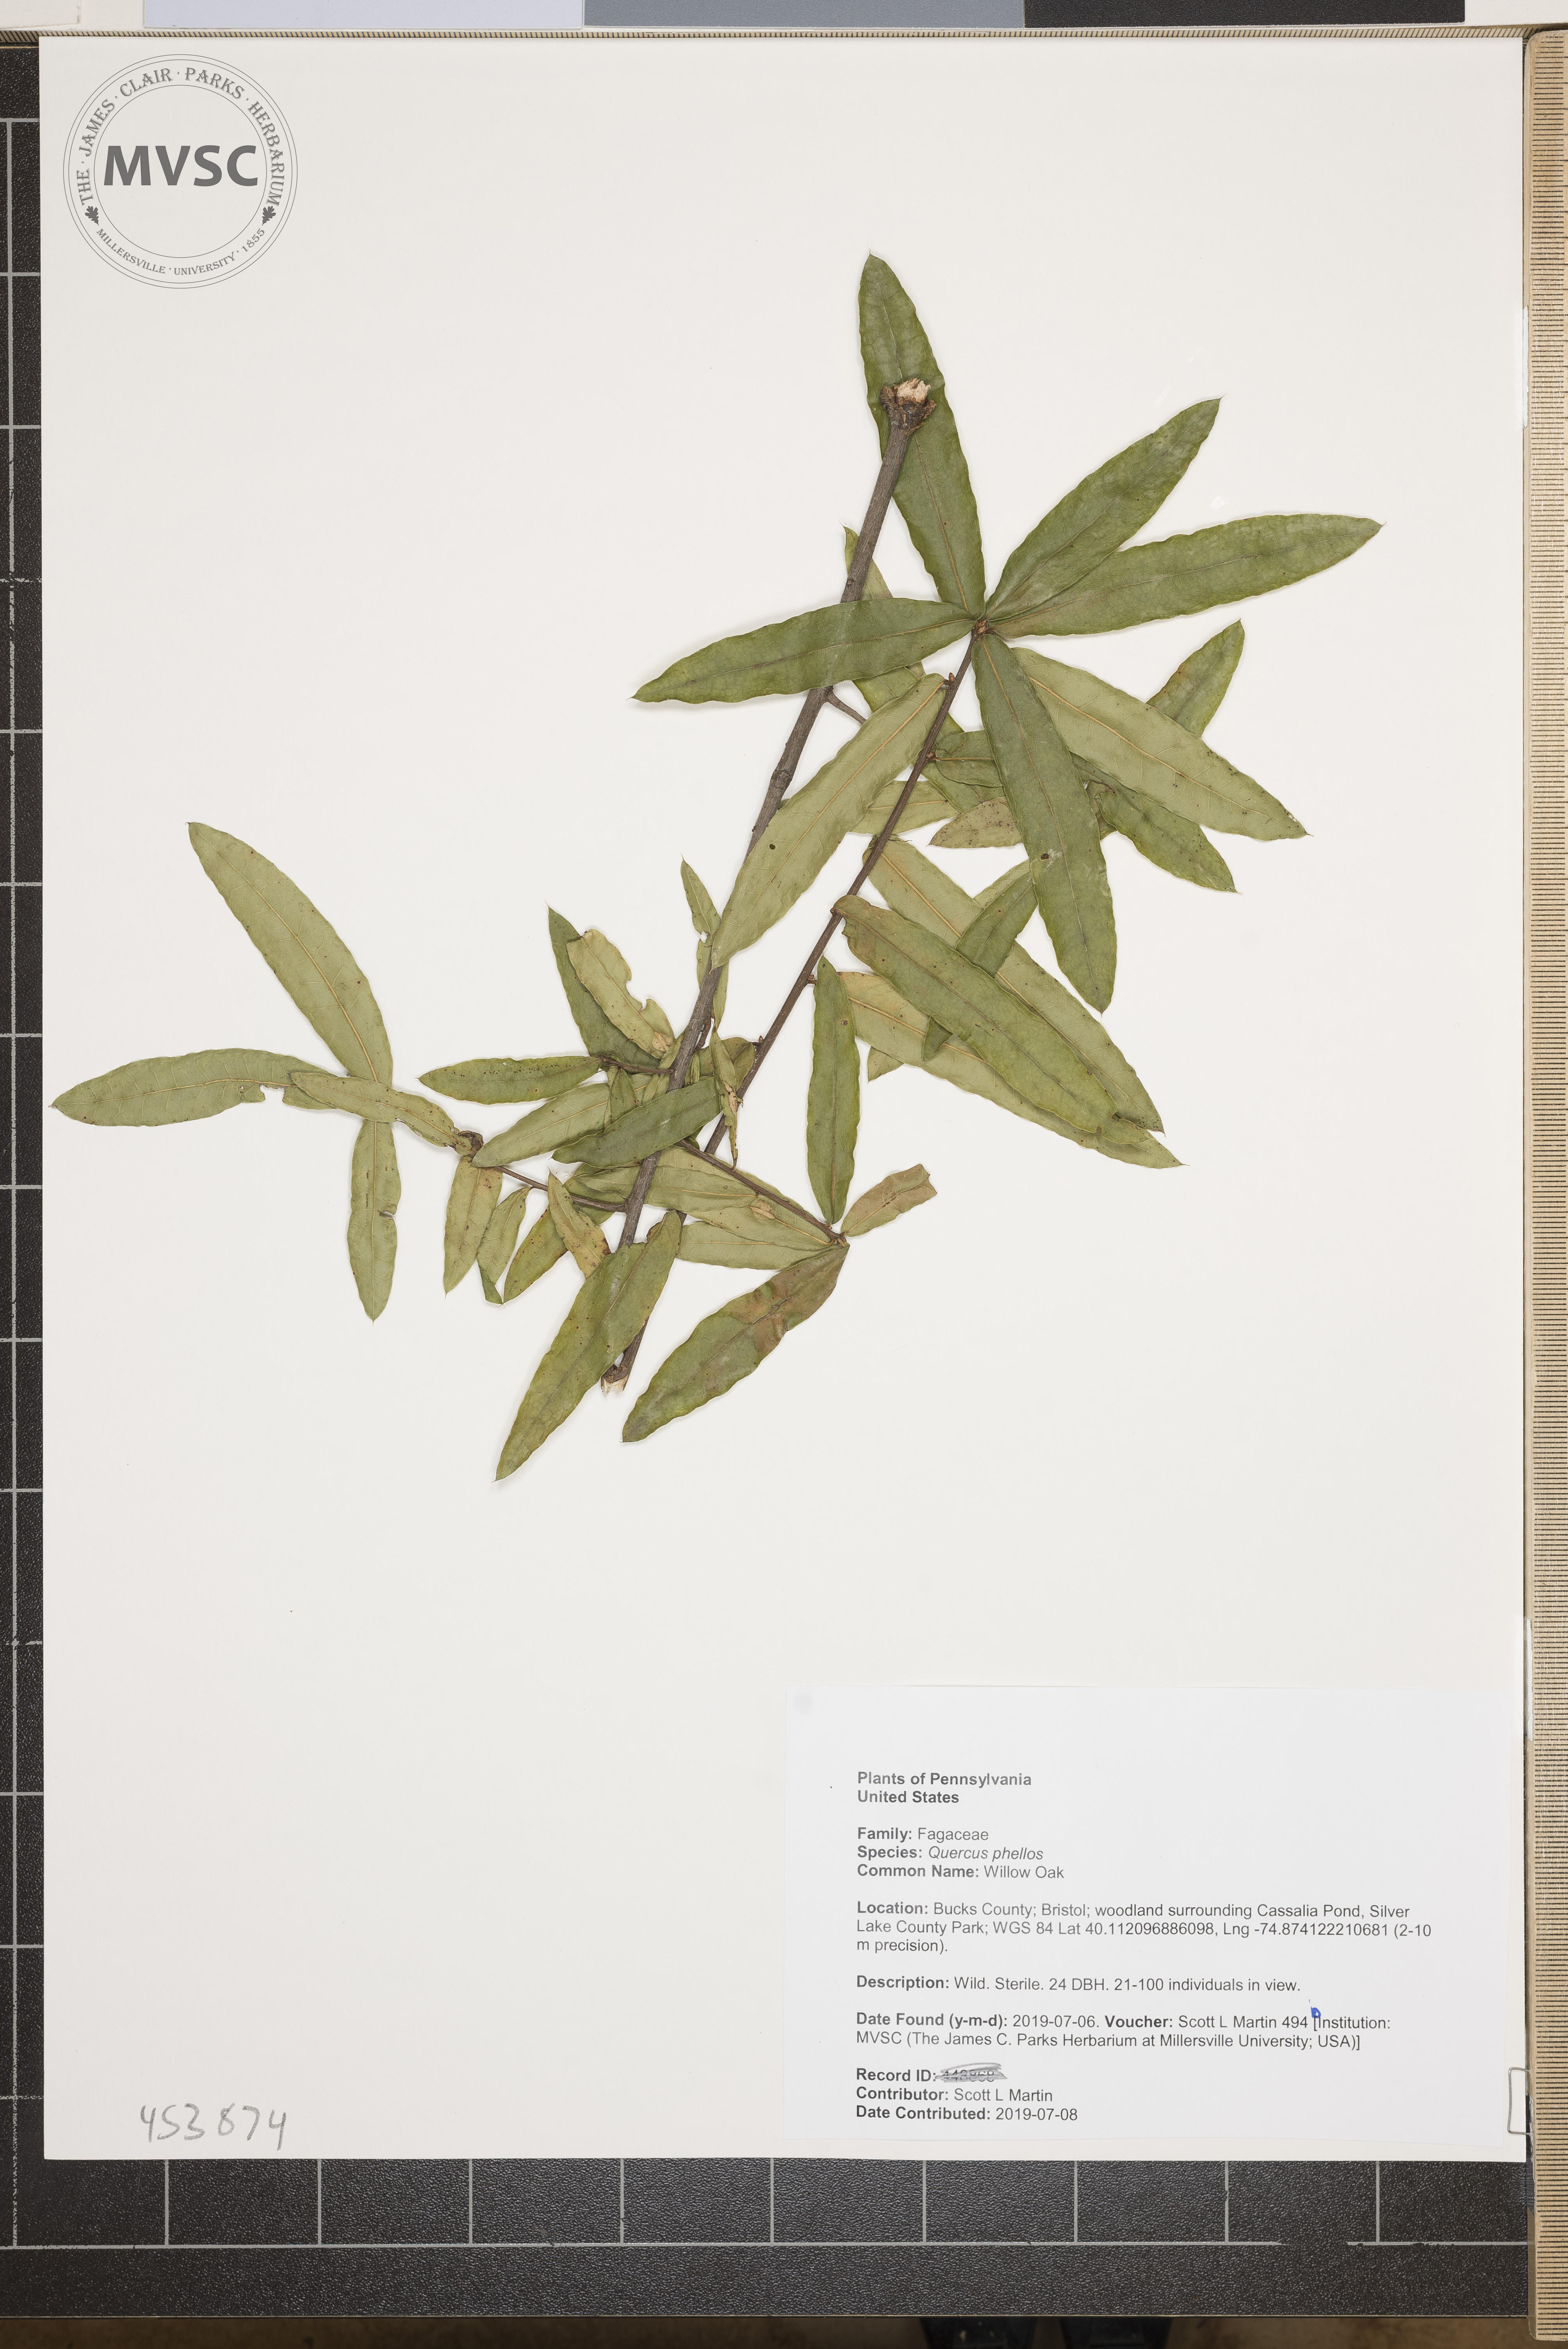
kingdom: Plantae
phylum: Tracheophyta
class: Magnoliopsida
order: Fagales
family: Fagaceae
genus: Quercus
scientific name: Quercus phellos
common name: Willow Oak
